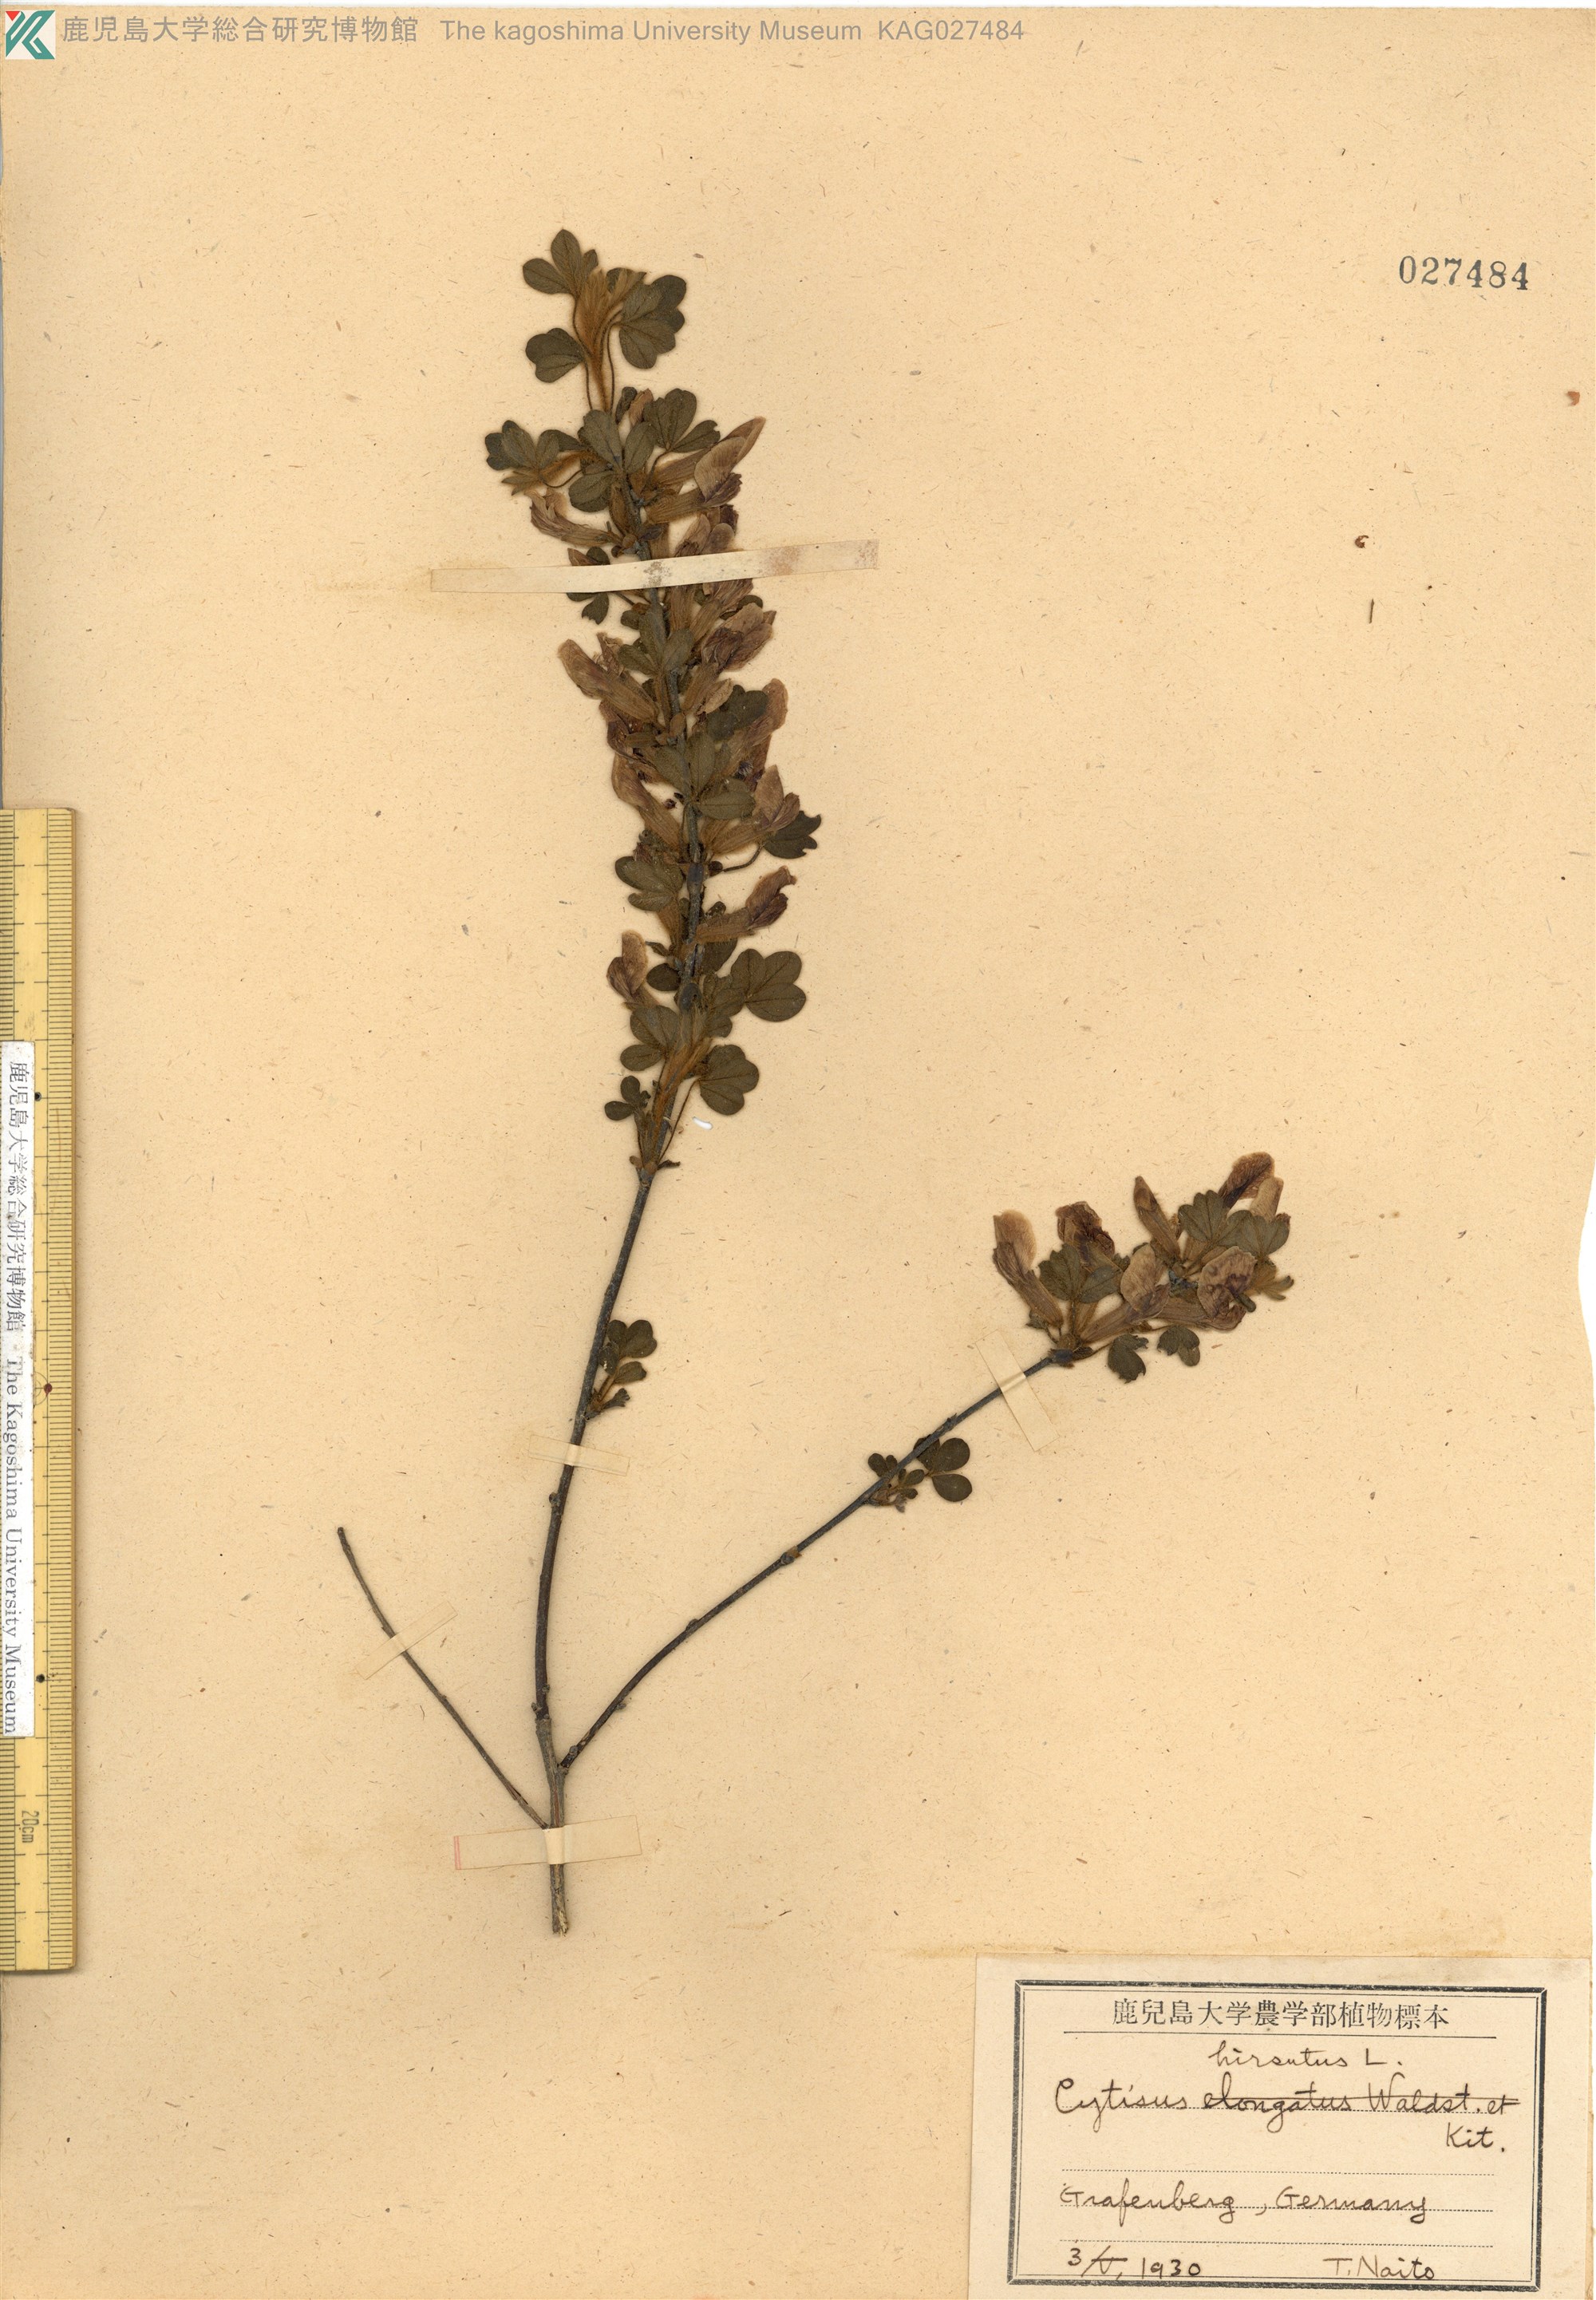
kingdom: Plantae
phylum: Tracheophyta
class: Magnoliopsida
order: Fabales
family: Fabaceae
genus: Chamaecytisus
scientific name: Chamaecytisus hirsutus
